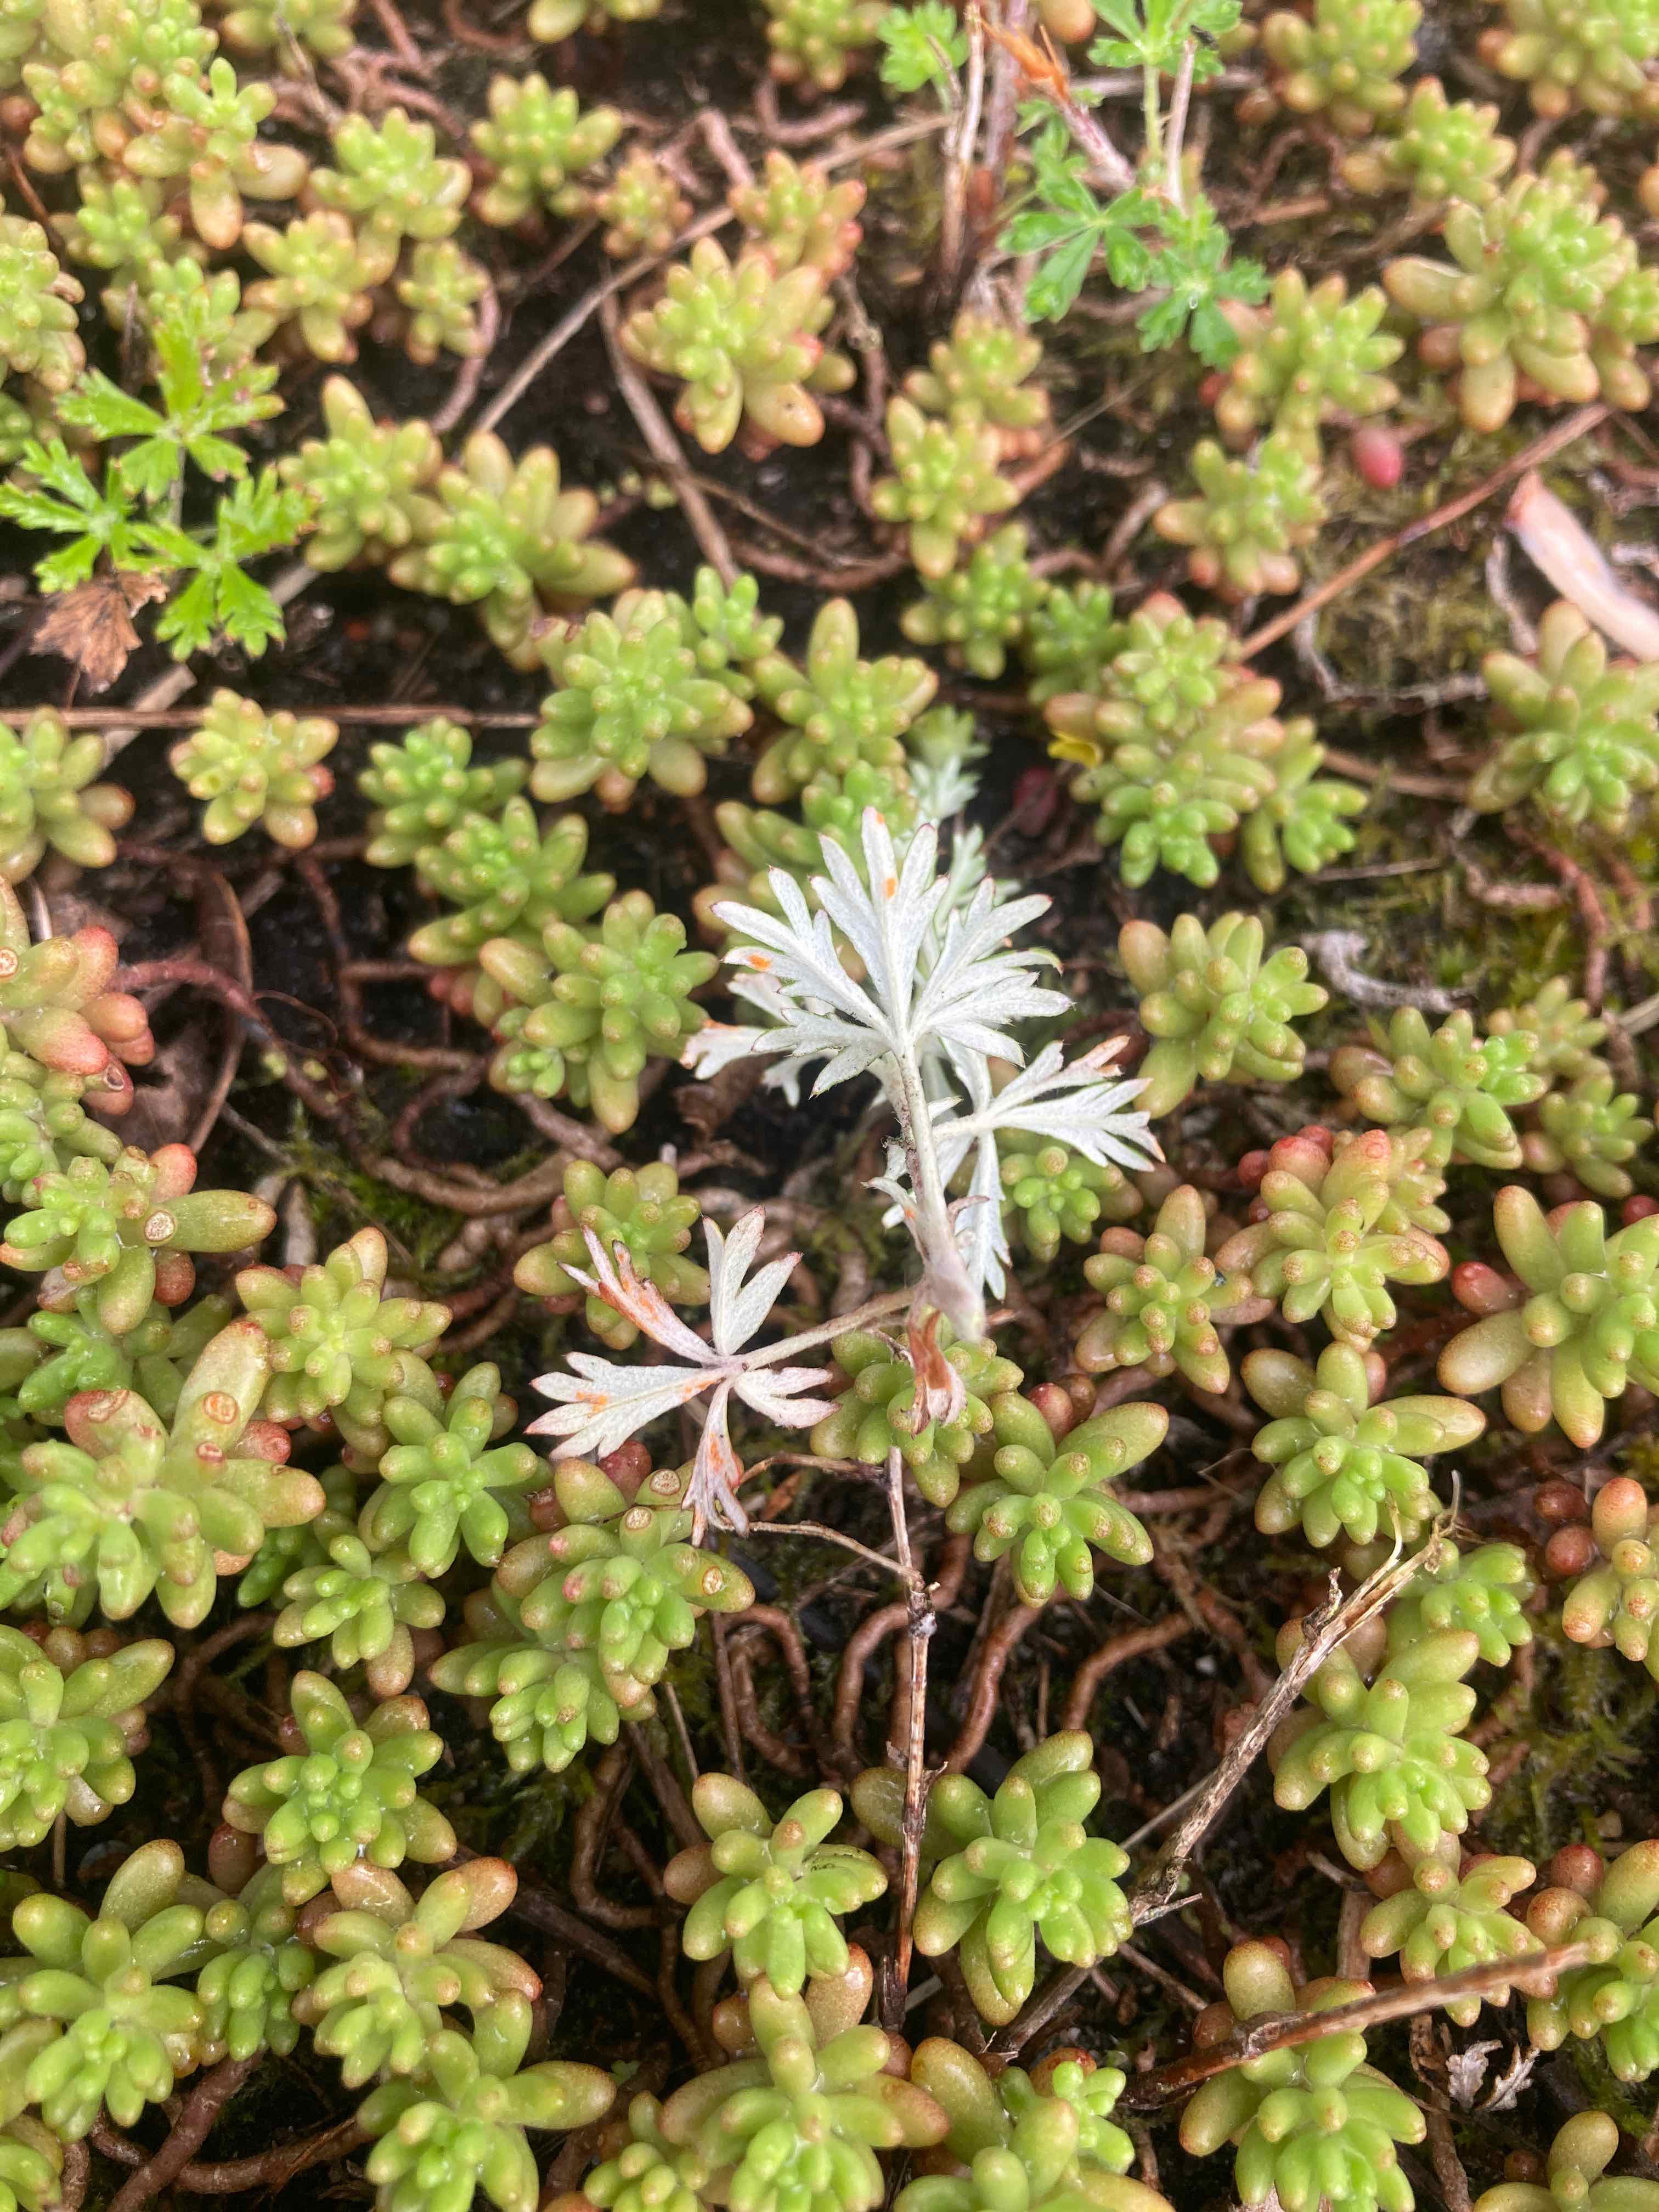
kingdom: Fungi
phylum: Basidiomycota
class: Pucciniomycetes
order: Pucciniales
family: Phragmidiaceae
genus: Phragmidium
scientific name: Phragmidium fragariae
